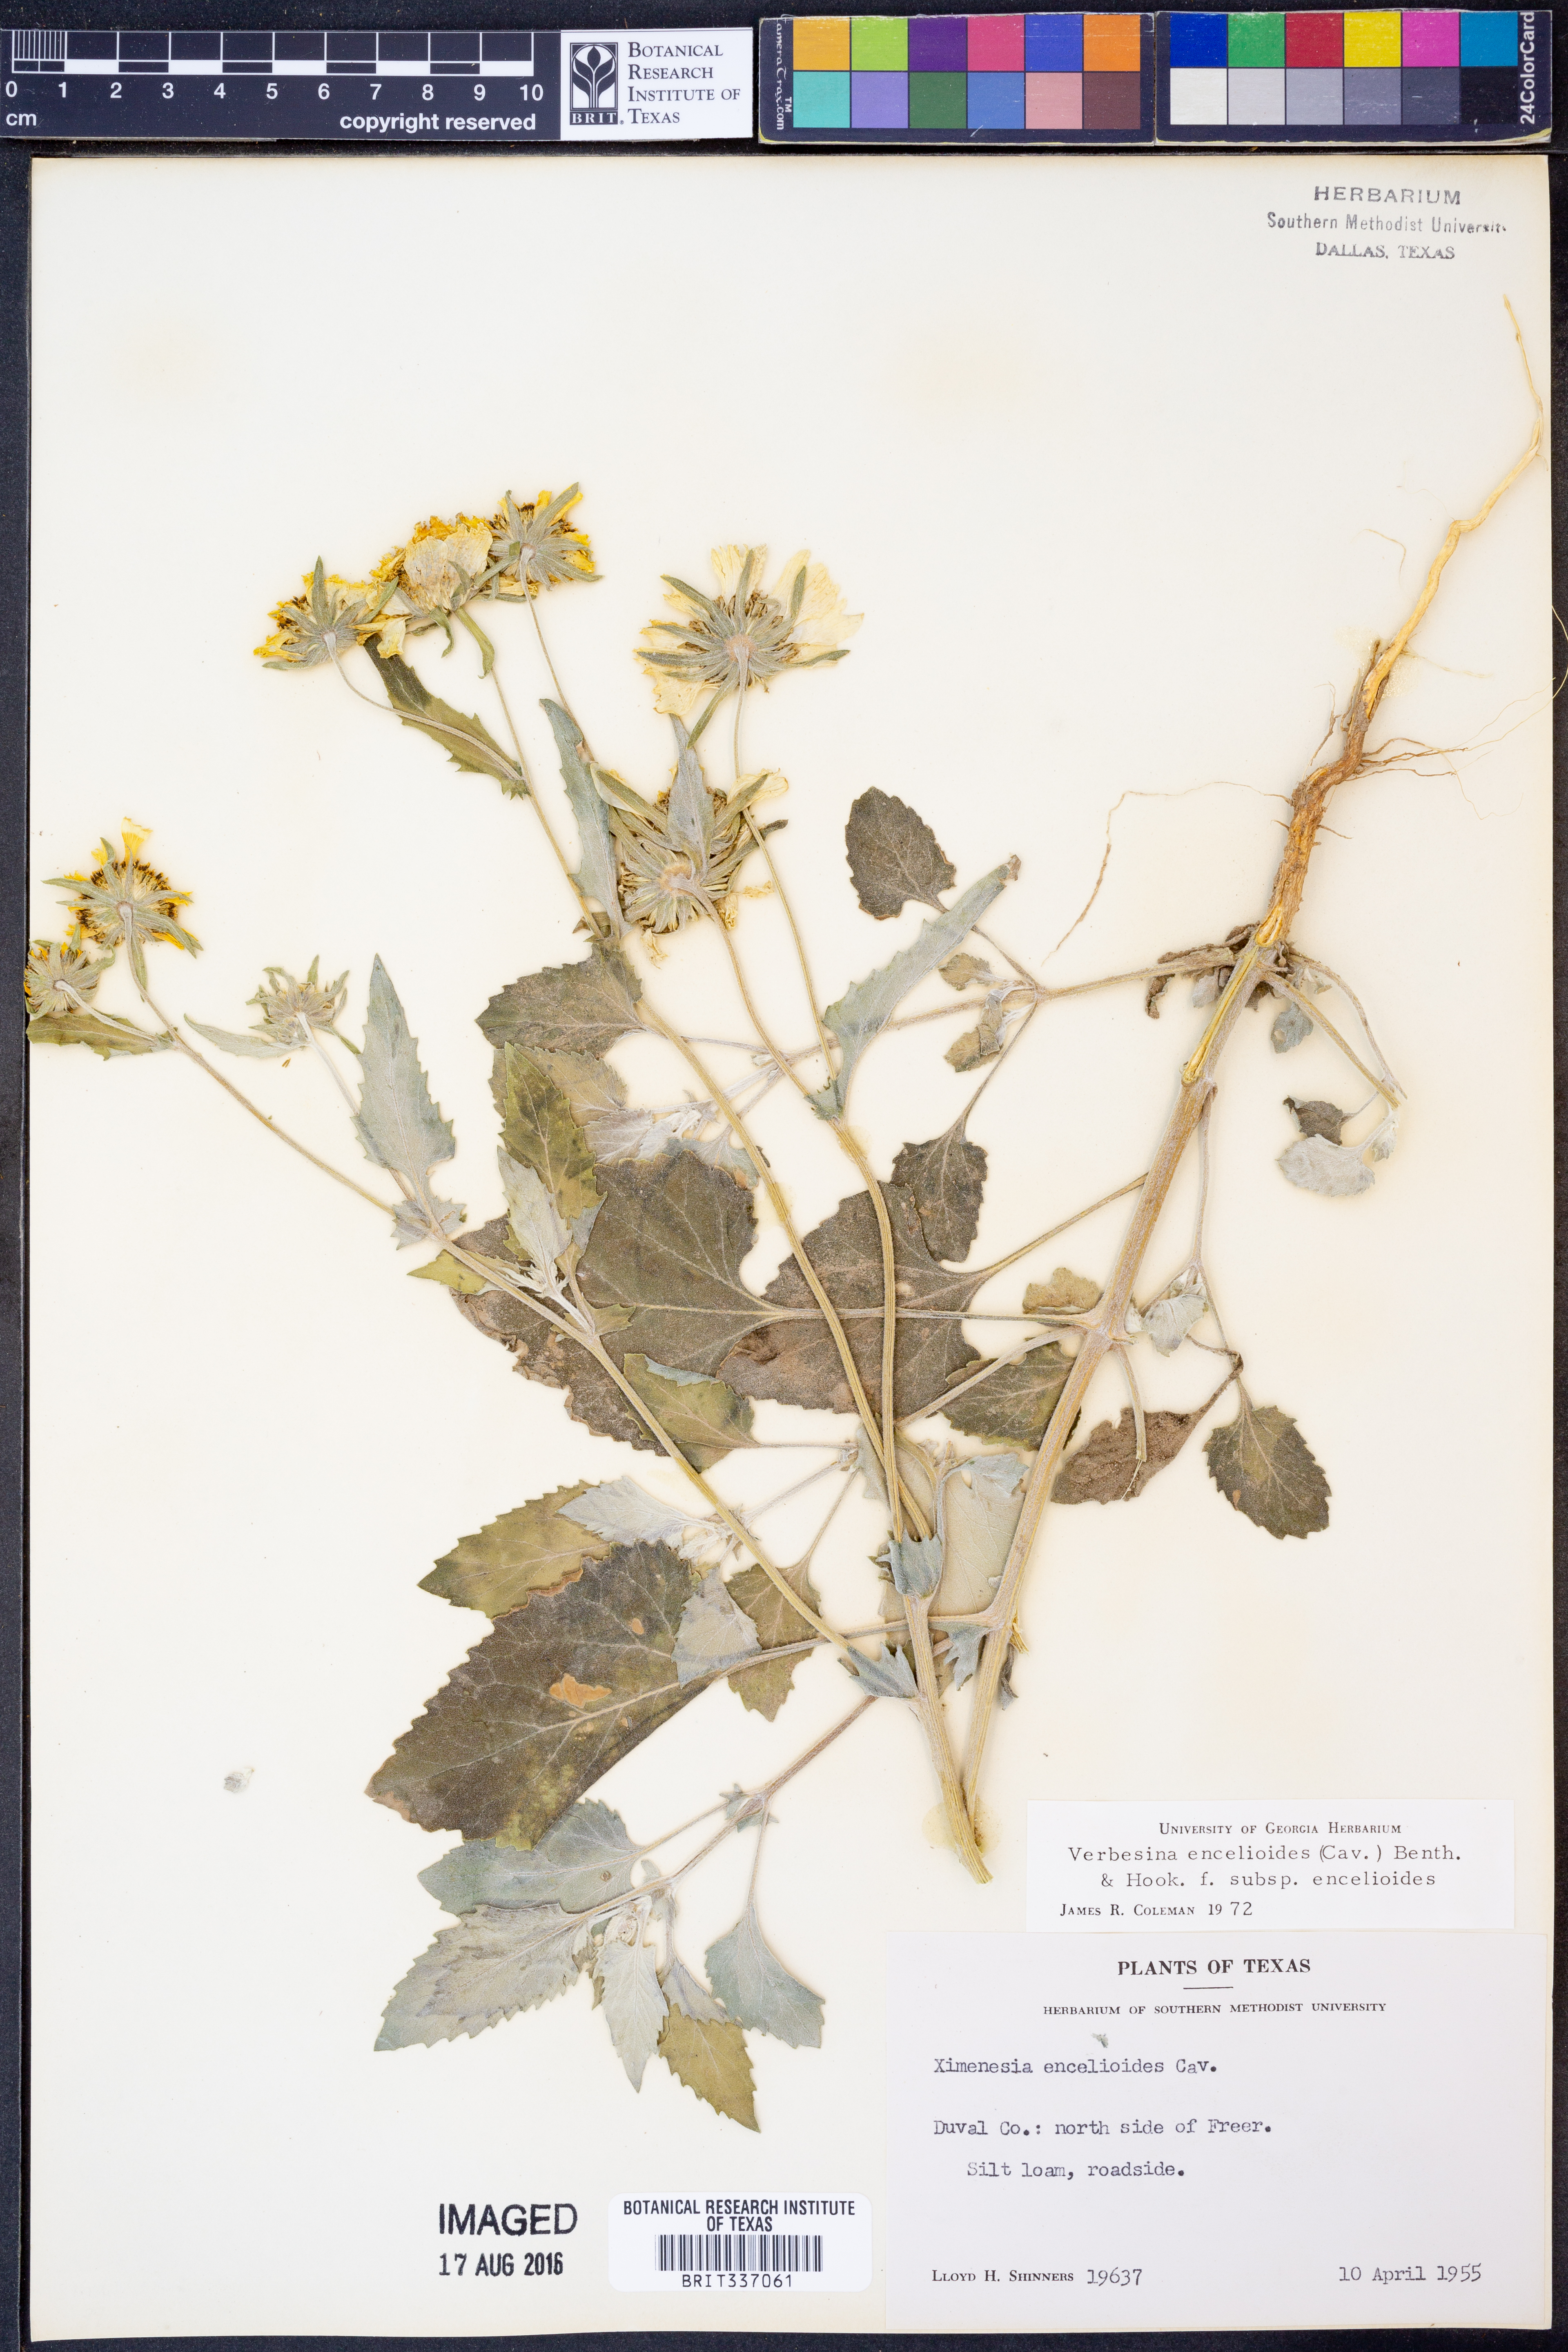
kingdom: Plantae
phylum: Tracheophyta
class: Magnoliopsida
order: Asterales
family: Asteraceae
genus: Verbesina
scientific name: Verbesina encelioides
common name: Golden crownbeard
